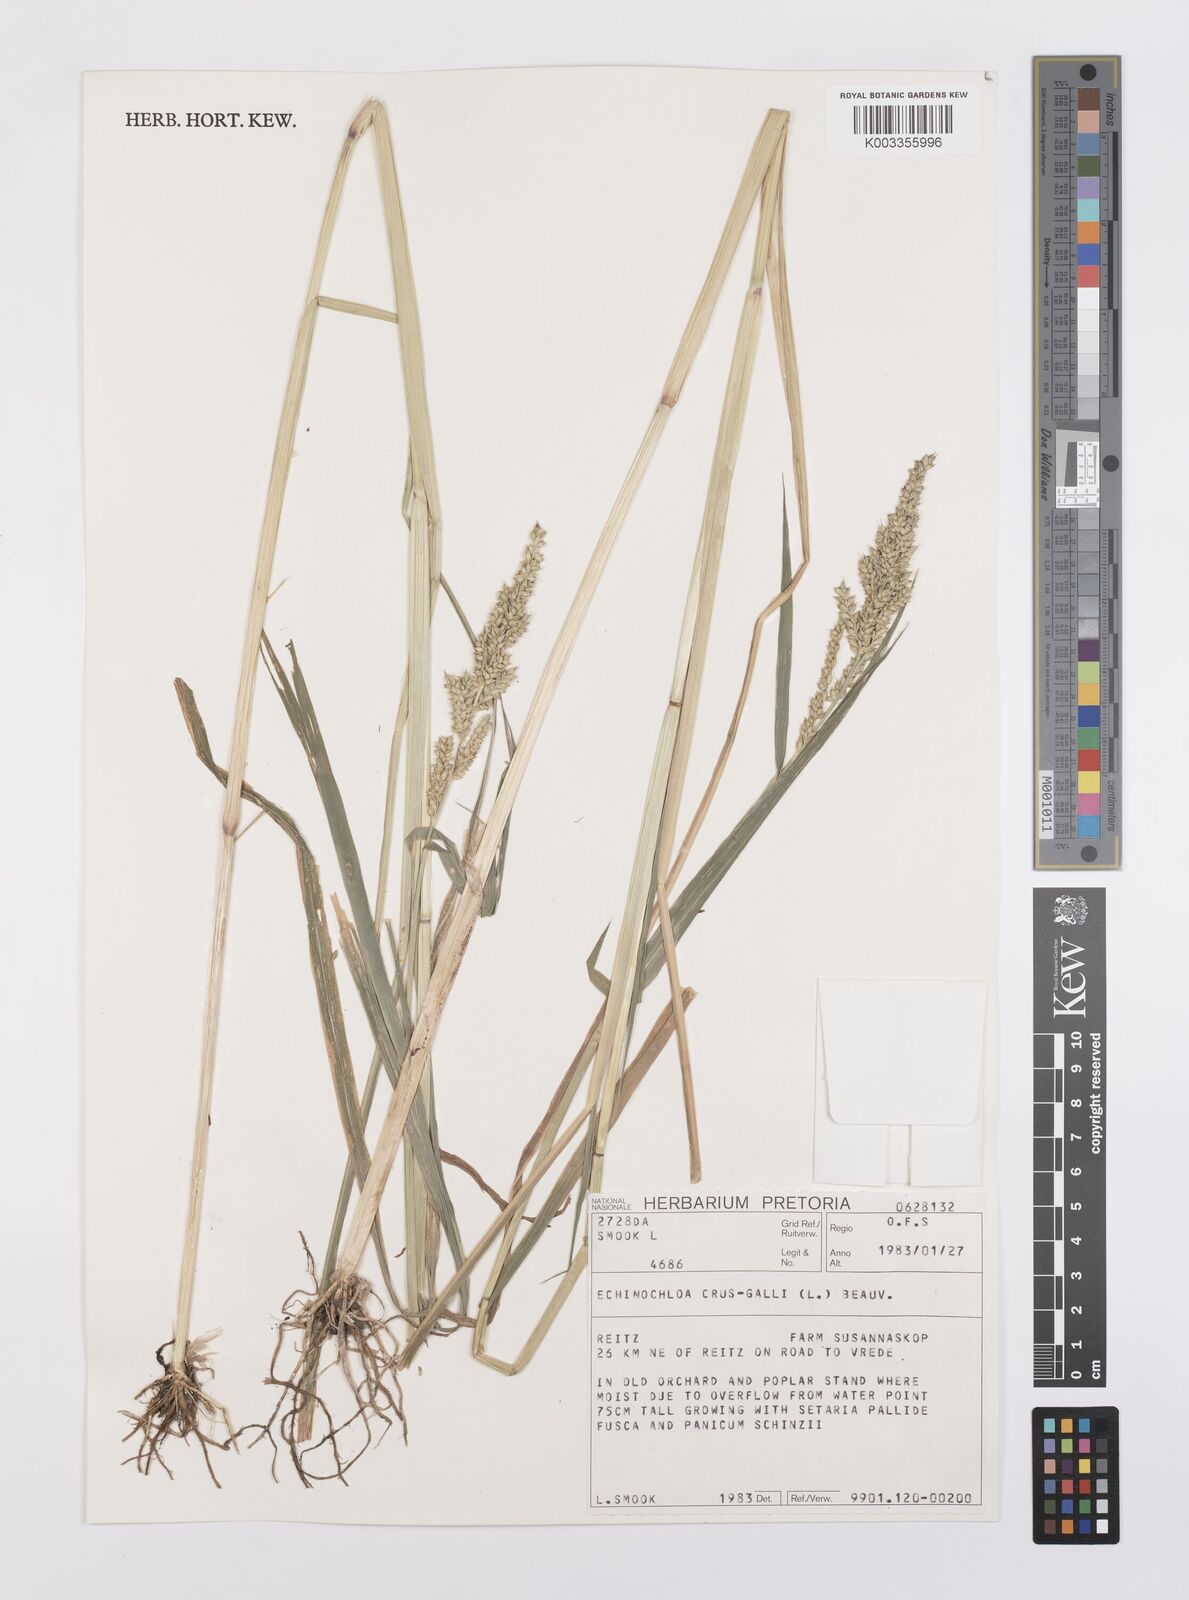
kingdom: Plantae
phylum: Tracheophyta
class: Liliopsida
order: Poales
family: Poaceae
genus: Echinochloa
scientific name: Echinochloa crus-galli
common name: Cockspur
